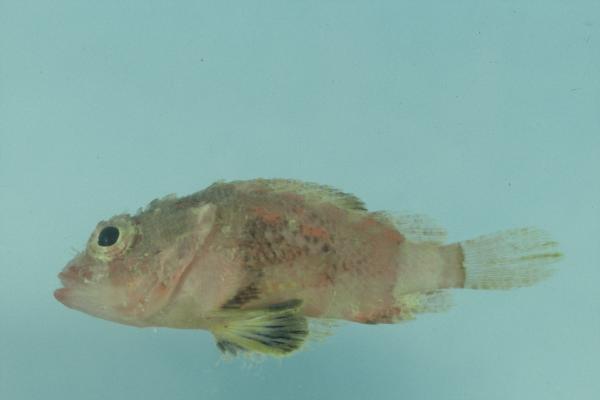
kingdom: Animalia
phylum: Chordata
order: Scorpaeniformes
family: Scorpaenidae
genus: Scorpaenodes
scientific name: Scorpaenodes varipinnis
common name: Blotchfin scorpionfish
